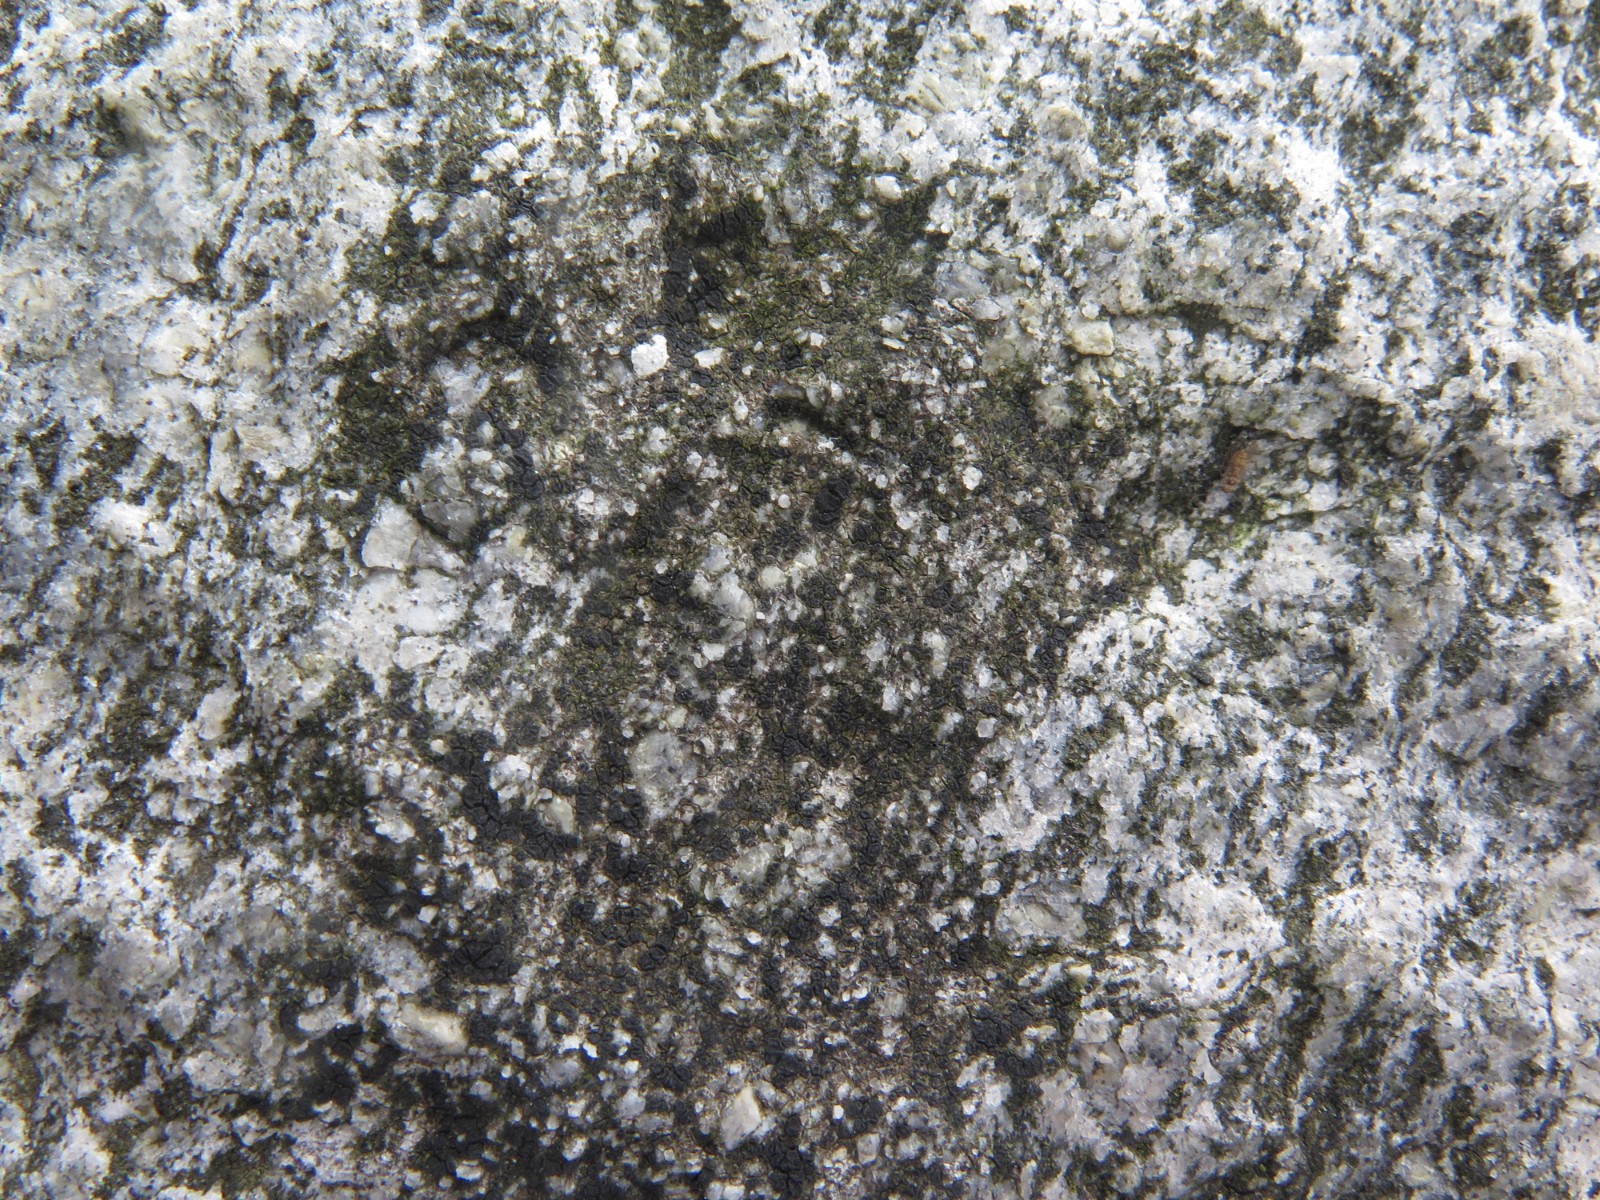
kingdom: Fungi
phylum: Ascomycota
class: Lecanoromycetes
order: Acarosporales
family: Acarosporaceae
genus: Acarospora
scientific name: Acarospora privigna
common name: sort foldekantlav
